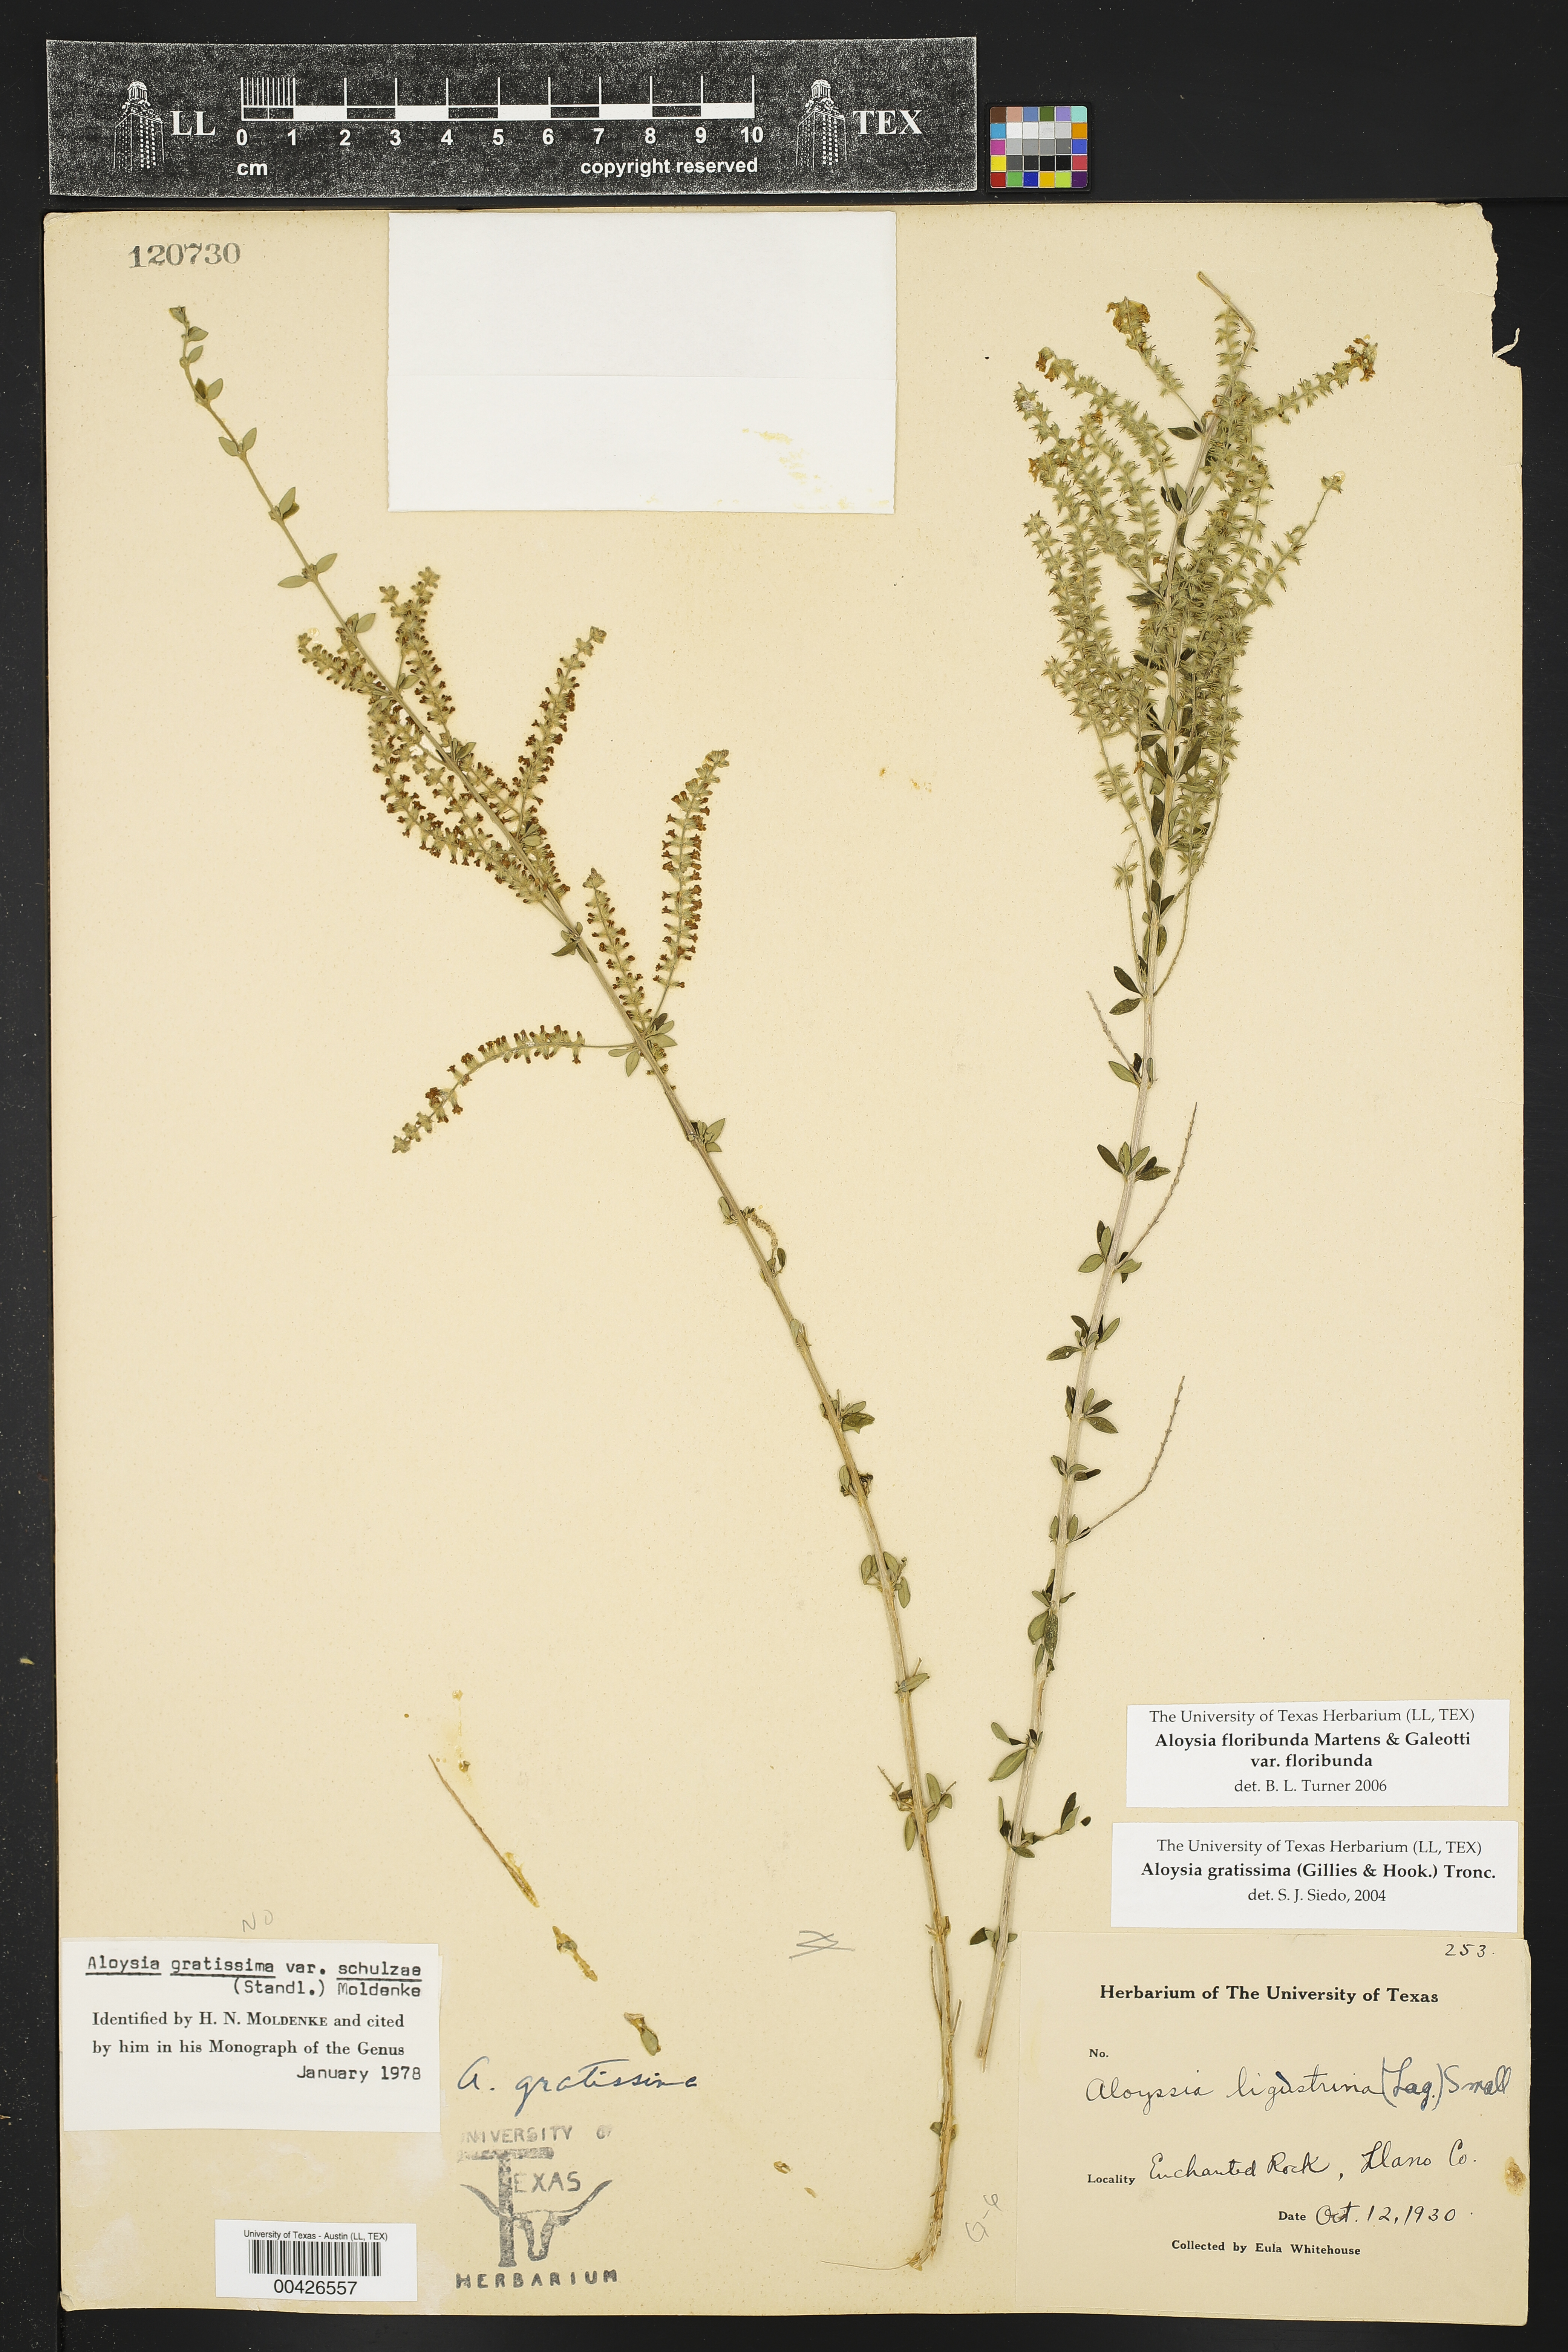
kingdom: Plantae
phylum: Tracheophyta
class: Magnoliopsida
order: Lamiales
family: Verbenaceae
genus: Aloysia
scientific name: Aloysia gratissima
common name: Common bee-brush
